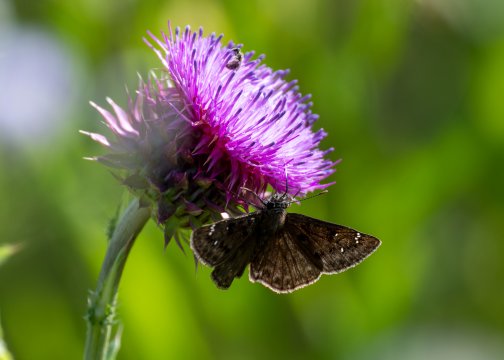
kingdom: Animalia
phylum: Arthropoda
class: Insecta
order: Lepidoptera
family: Hesperiidae
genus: Gesta
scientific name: Gesta
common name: Horace's Duskywing
